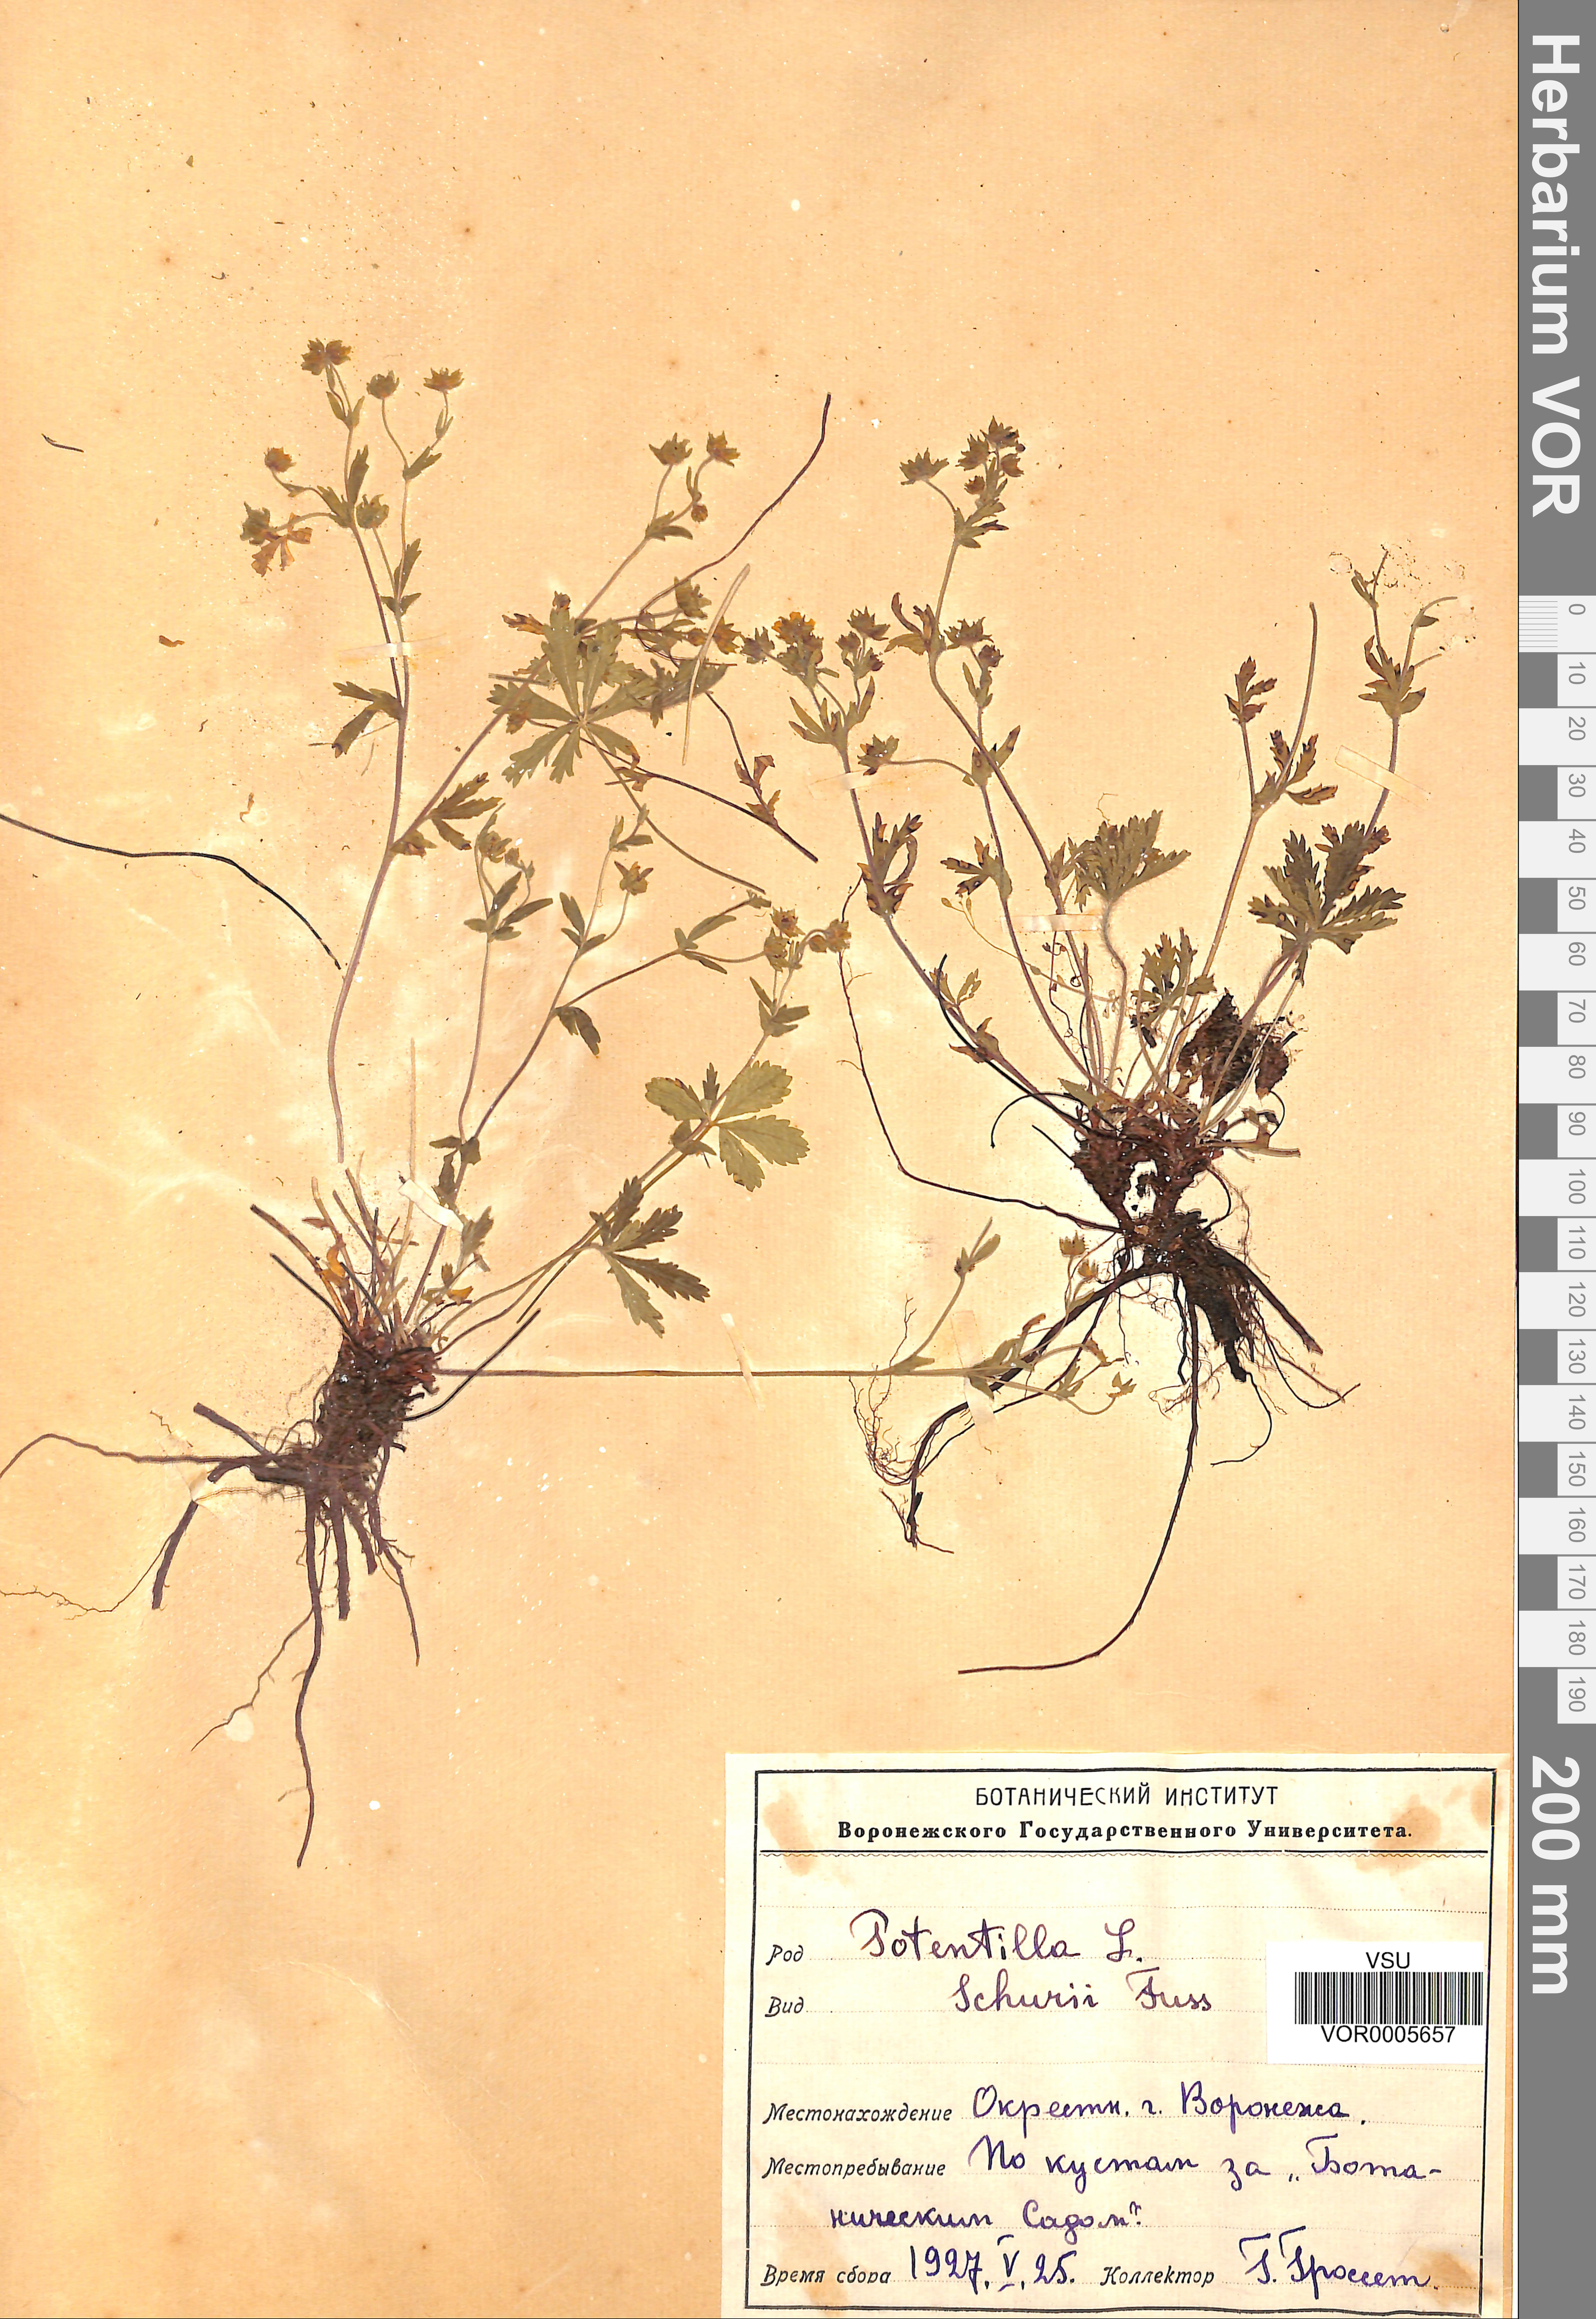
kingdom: Plantae
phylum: Tracheophyta
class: Magnoliopsida
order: Rosales
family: Rosaceae
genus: Potentilla
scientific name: Potentilla patula
